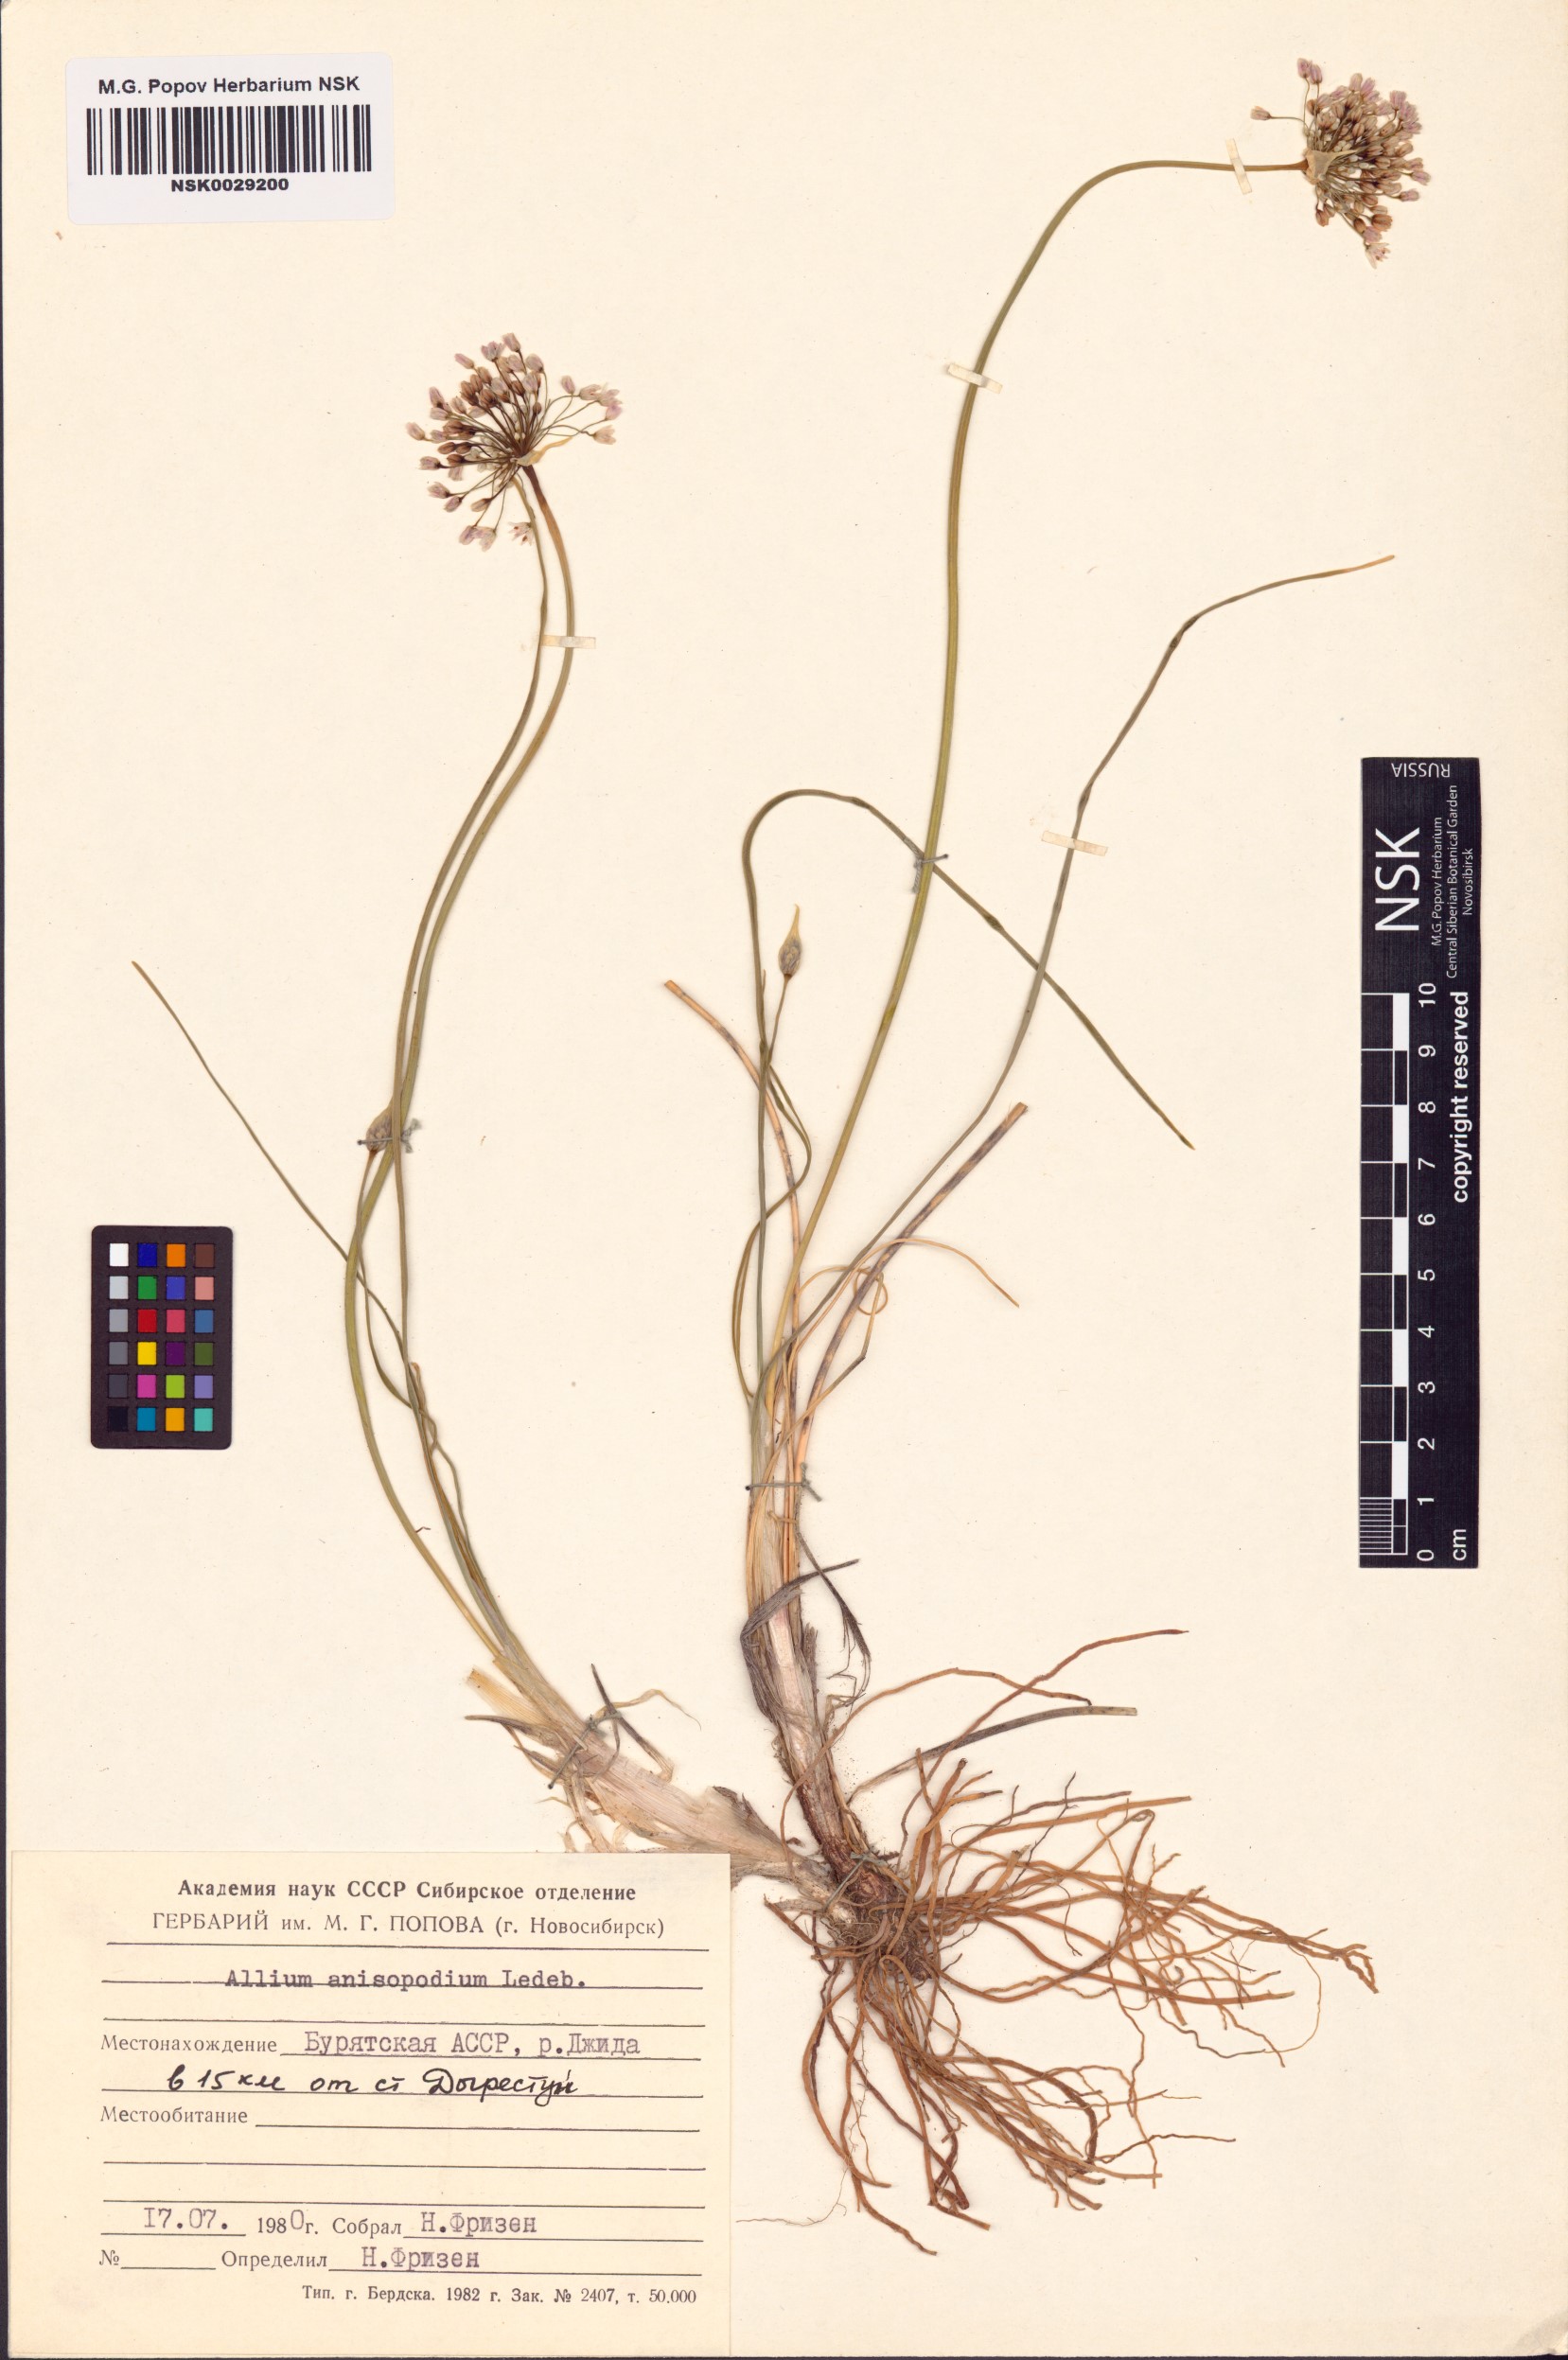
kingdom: Plantae
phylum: Tracheophyta
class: Liliopsida
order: Asparagales
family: Amaryllidaceae
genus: Allium
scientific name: Allium anisopodium
